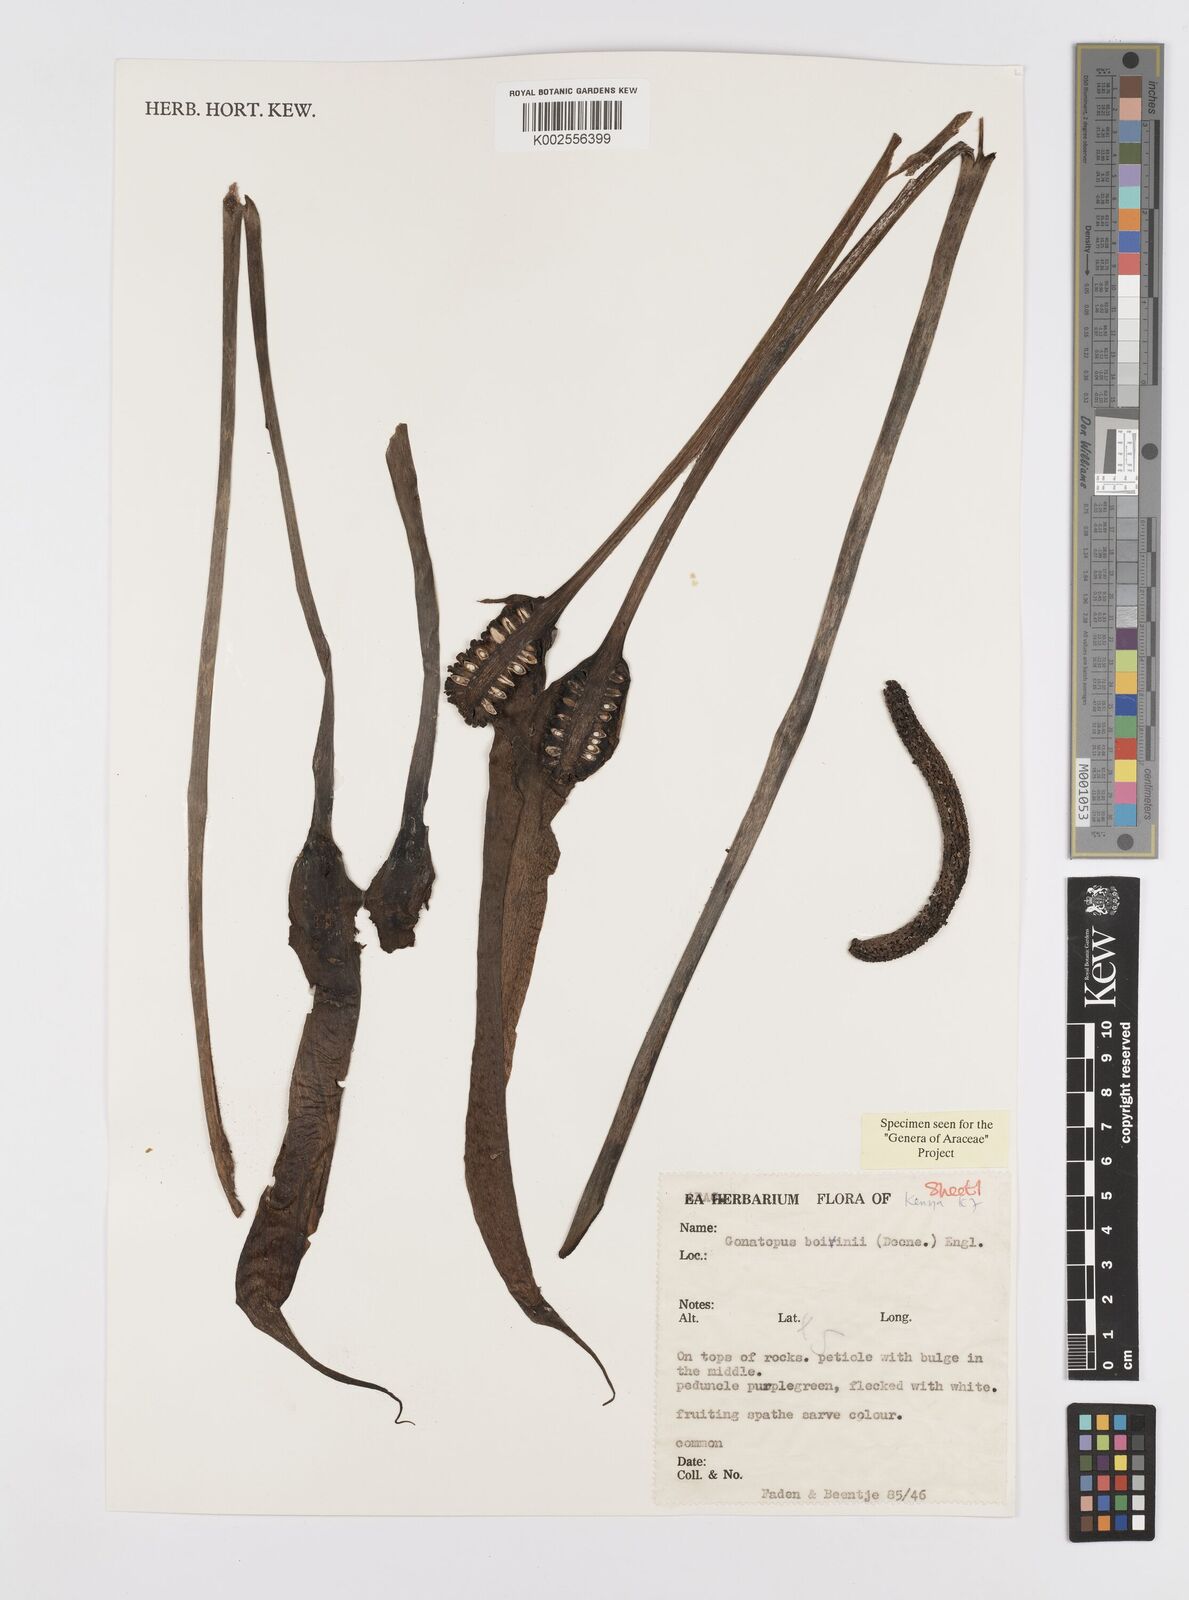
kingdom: Plantae
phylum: Tracheophyta
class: Liliopsida
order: Alismatales
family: Araceae
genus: Gonatopus
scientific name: Gonatopus boivinii
